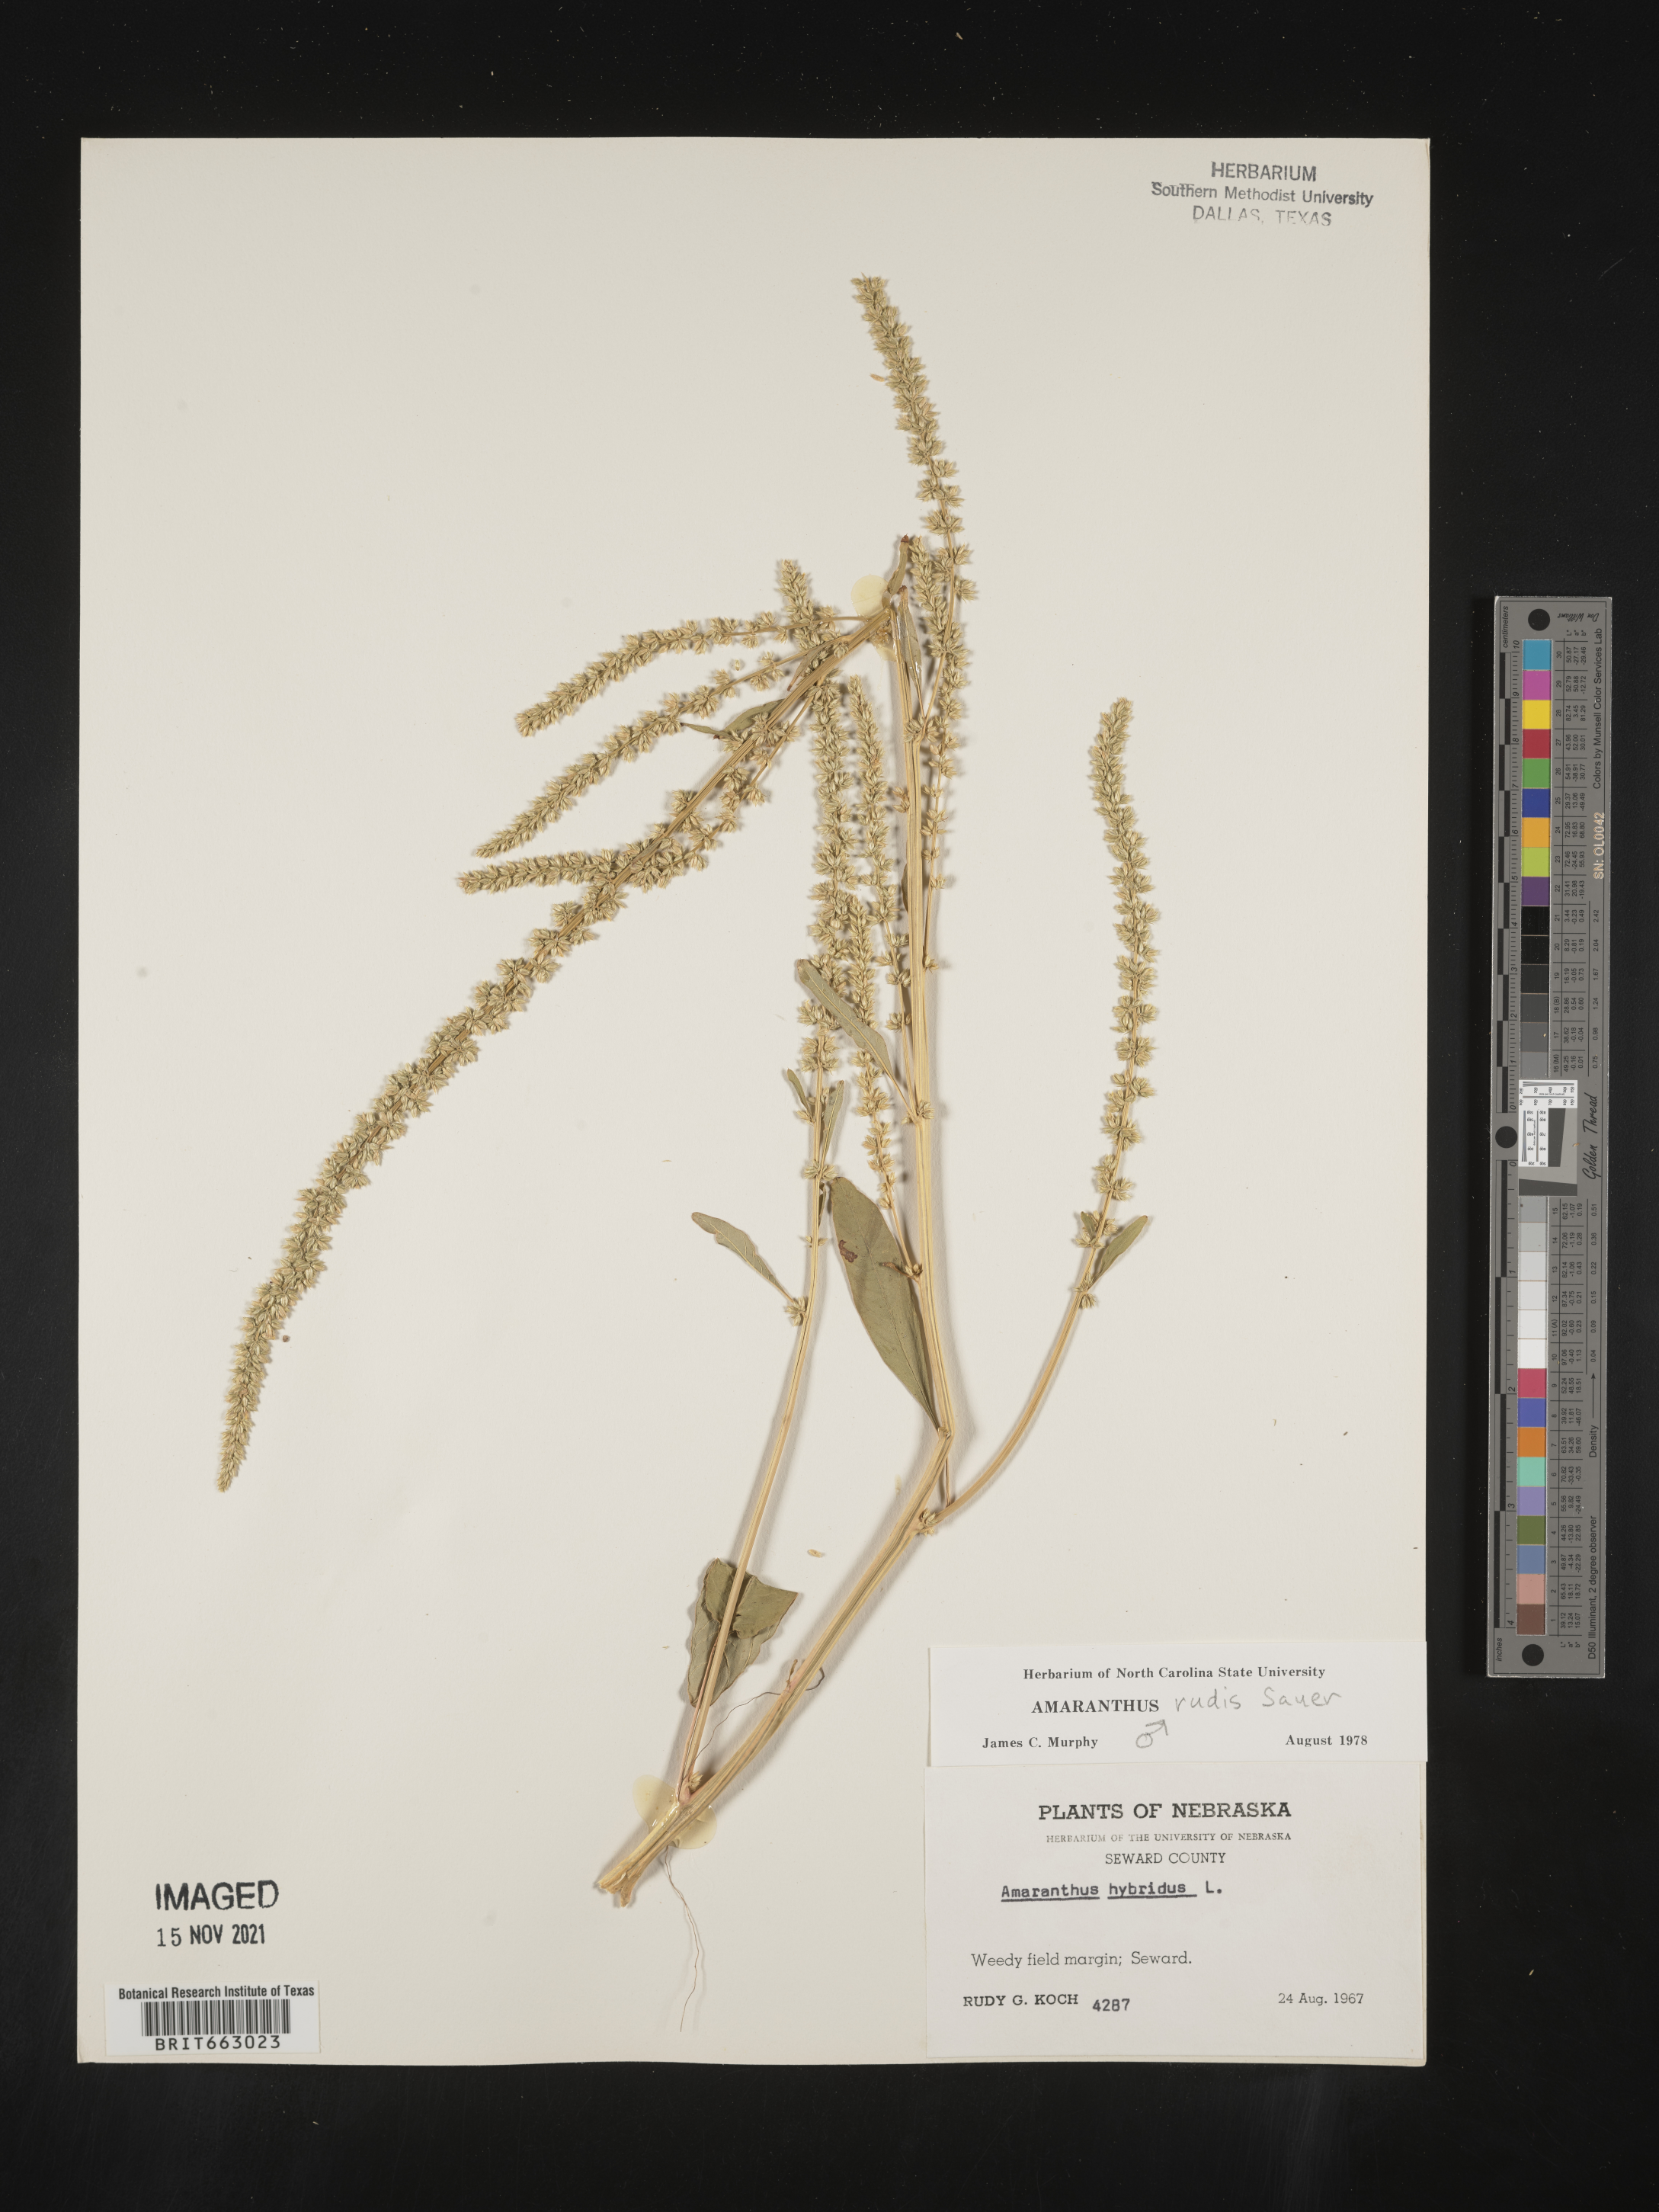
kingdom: Plantae
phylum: Tracheophyta
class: Magnoliopsida
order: Caryophyllales
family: Amaranthaceae
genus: Amaranthus
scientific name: Amaranthus tuberculatus
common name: Rough-fruit amaranth
